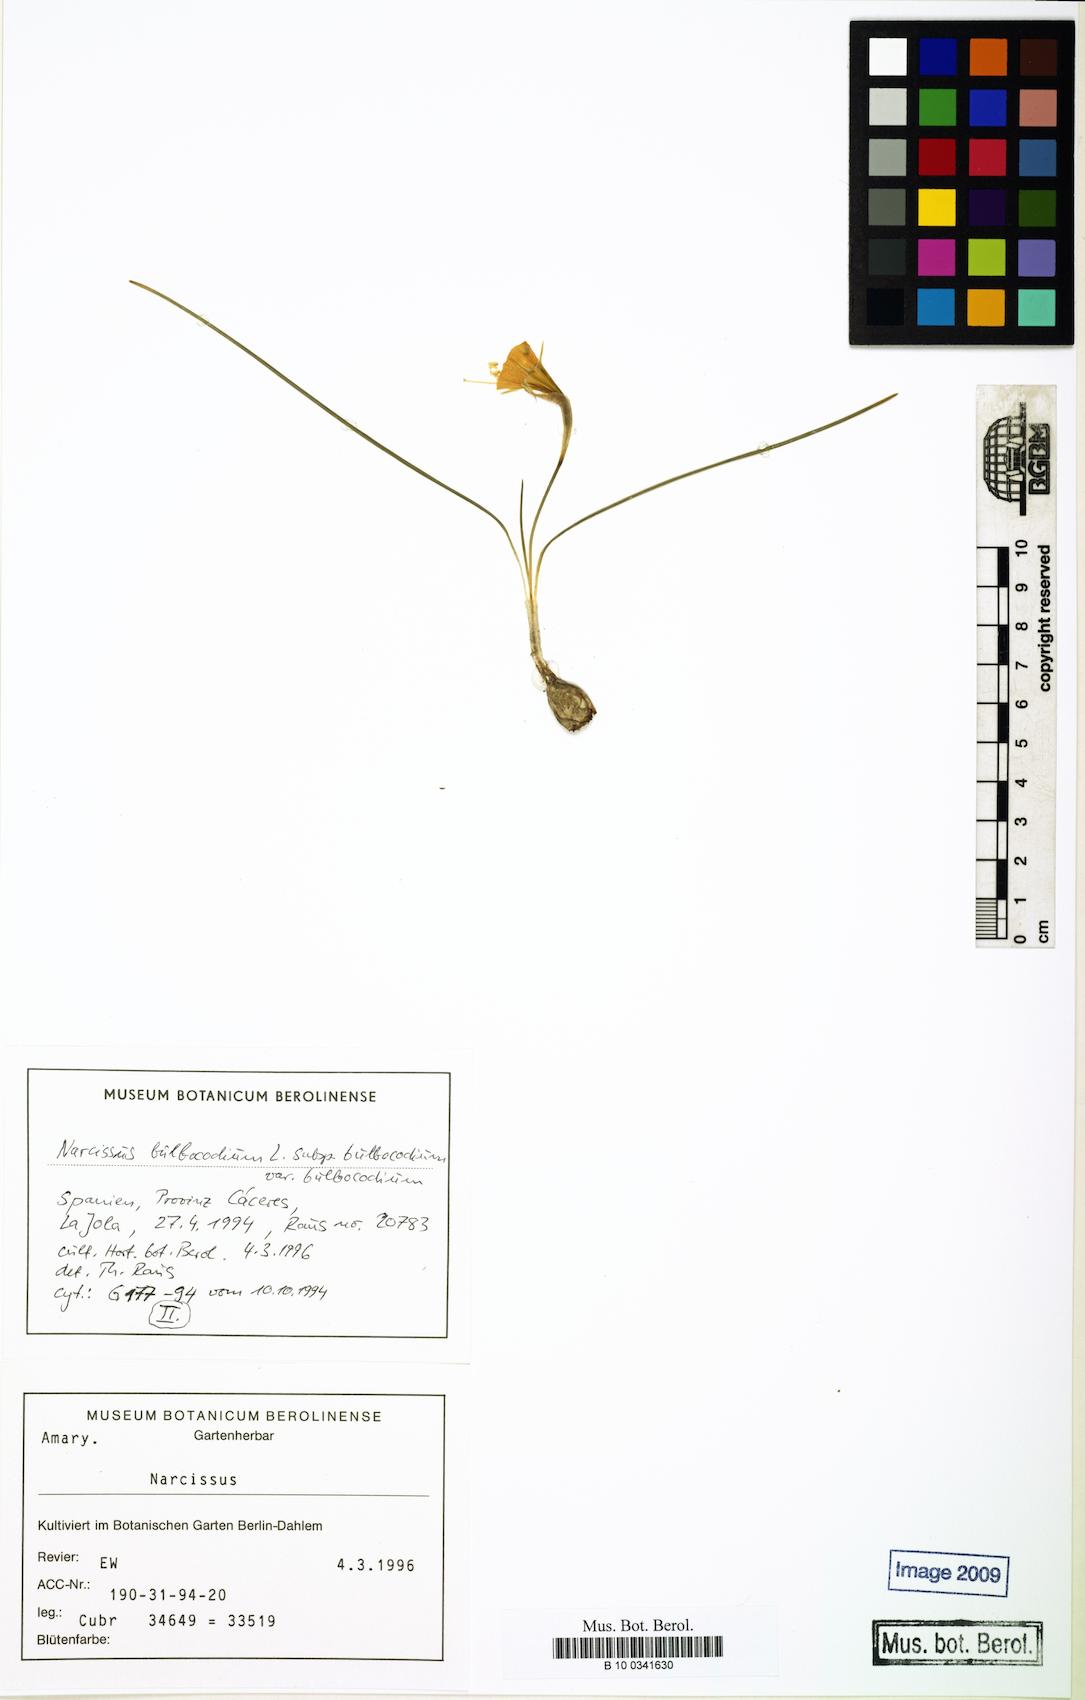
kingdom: Plantae
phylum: Tracheophyta
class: Liliopsida
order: Asparagales
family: Amaryllidaceae
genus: Narcissus
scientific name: Narcissus bulbocodium
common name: Hoop-petticoat daffodil
